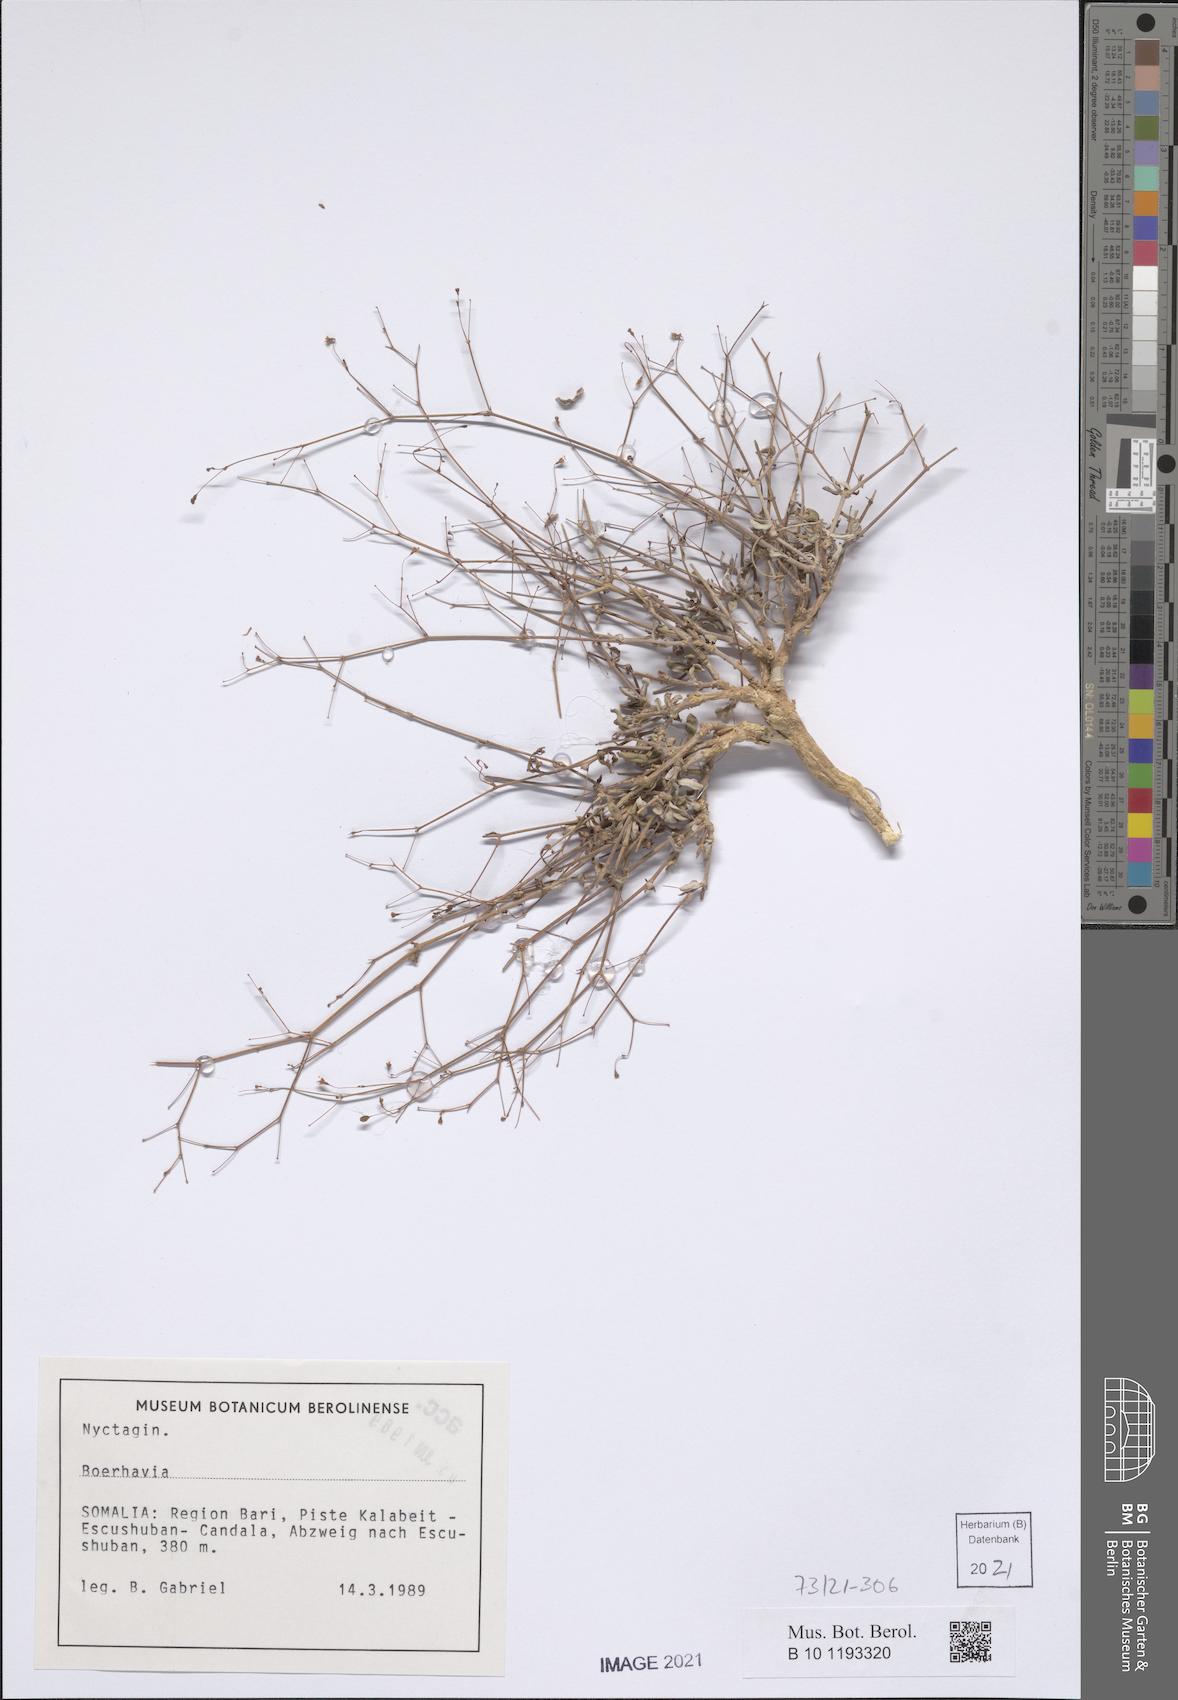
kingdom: Plantae
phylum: Tracheophyta
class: Magnoliopsida
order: Caryophyllales
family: Nyctaginaceae
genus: Boerhavia
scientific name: Boerhavia
